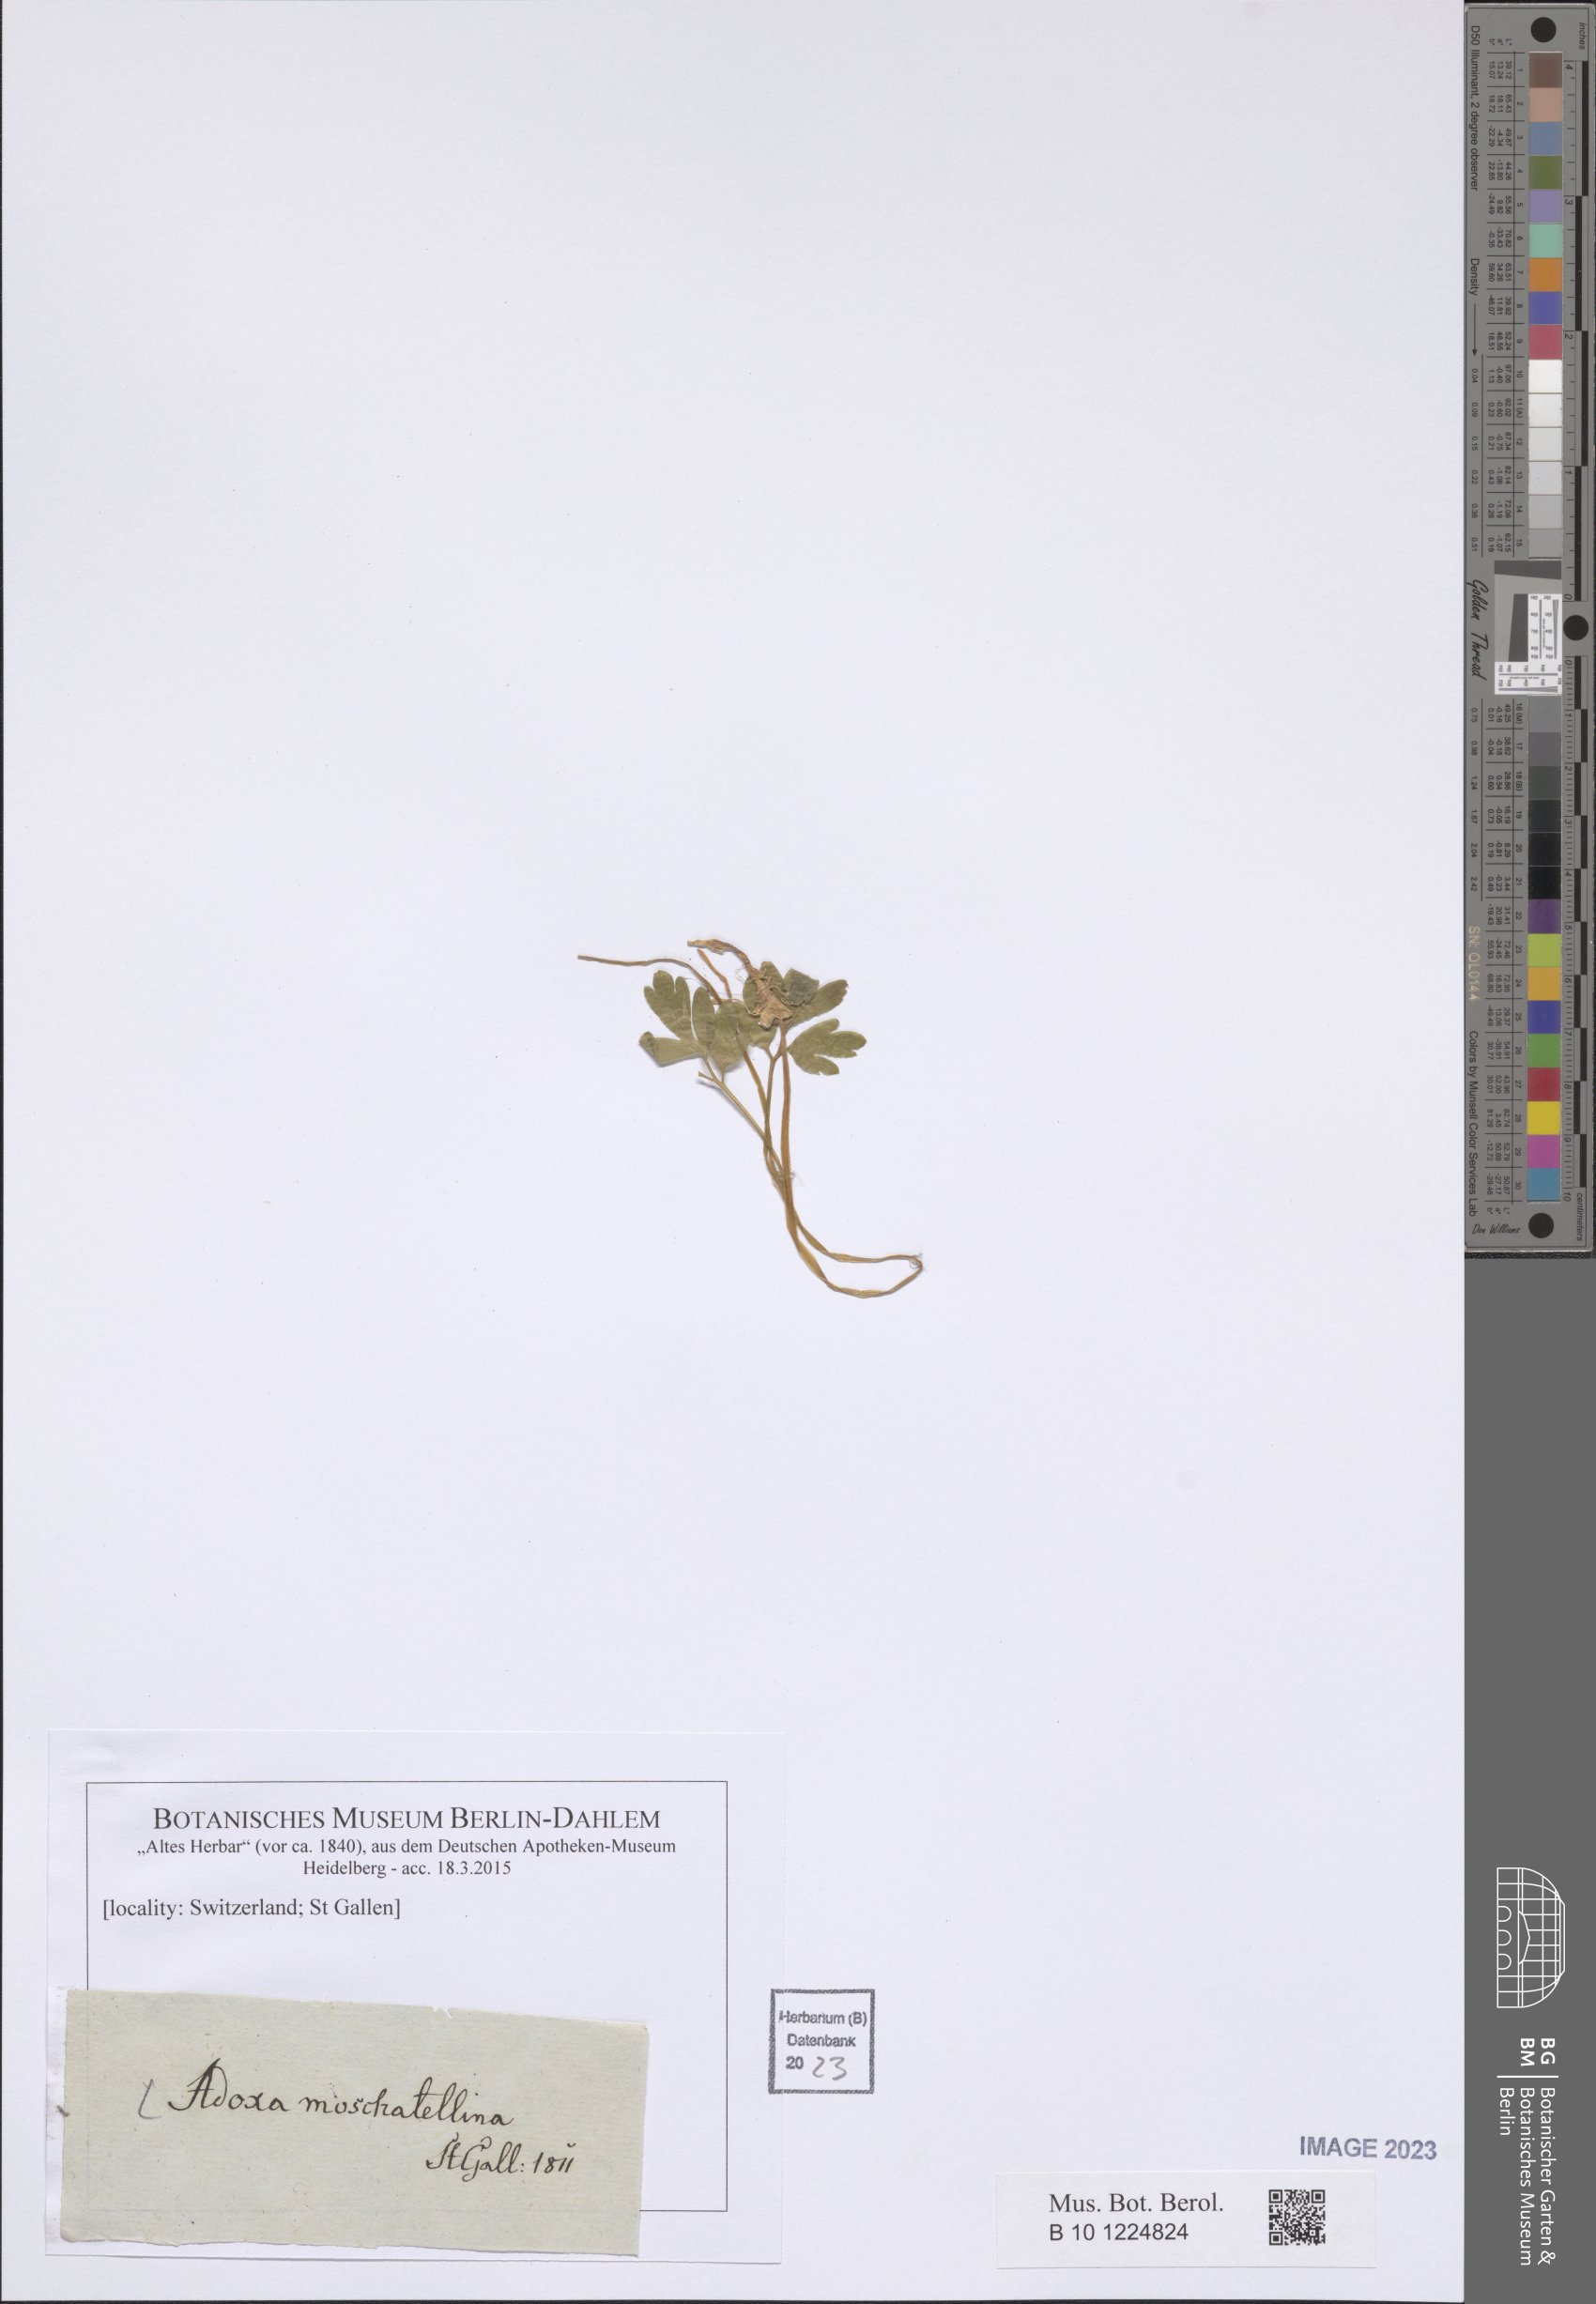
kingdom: Plantae
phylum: Tracheophyta
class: Magnoliopsida
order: Dipsacales
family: Viburnaceae
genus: Adoxa
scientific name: Adoxa moschatellina
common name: Moschatel
